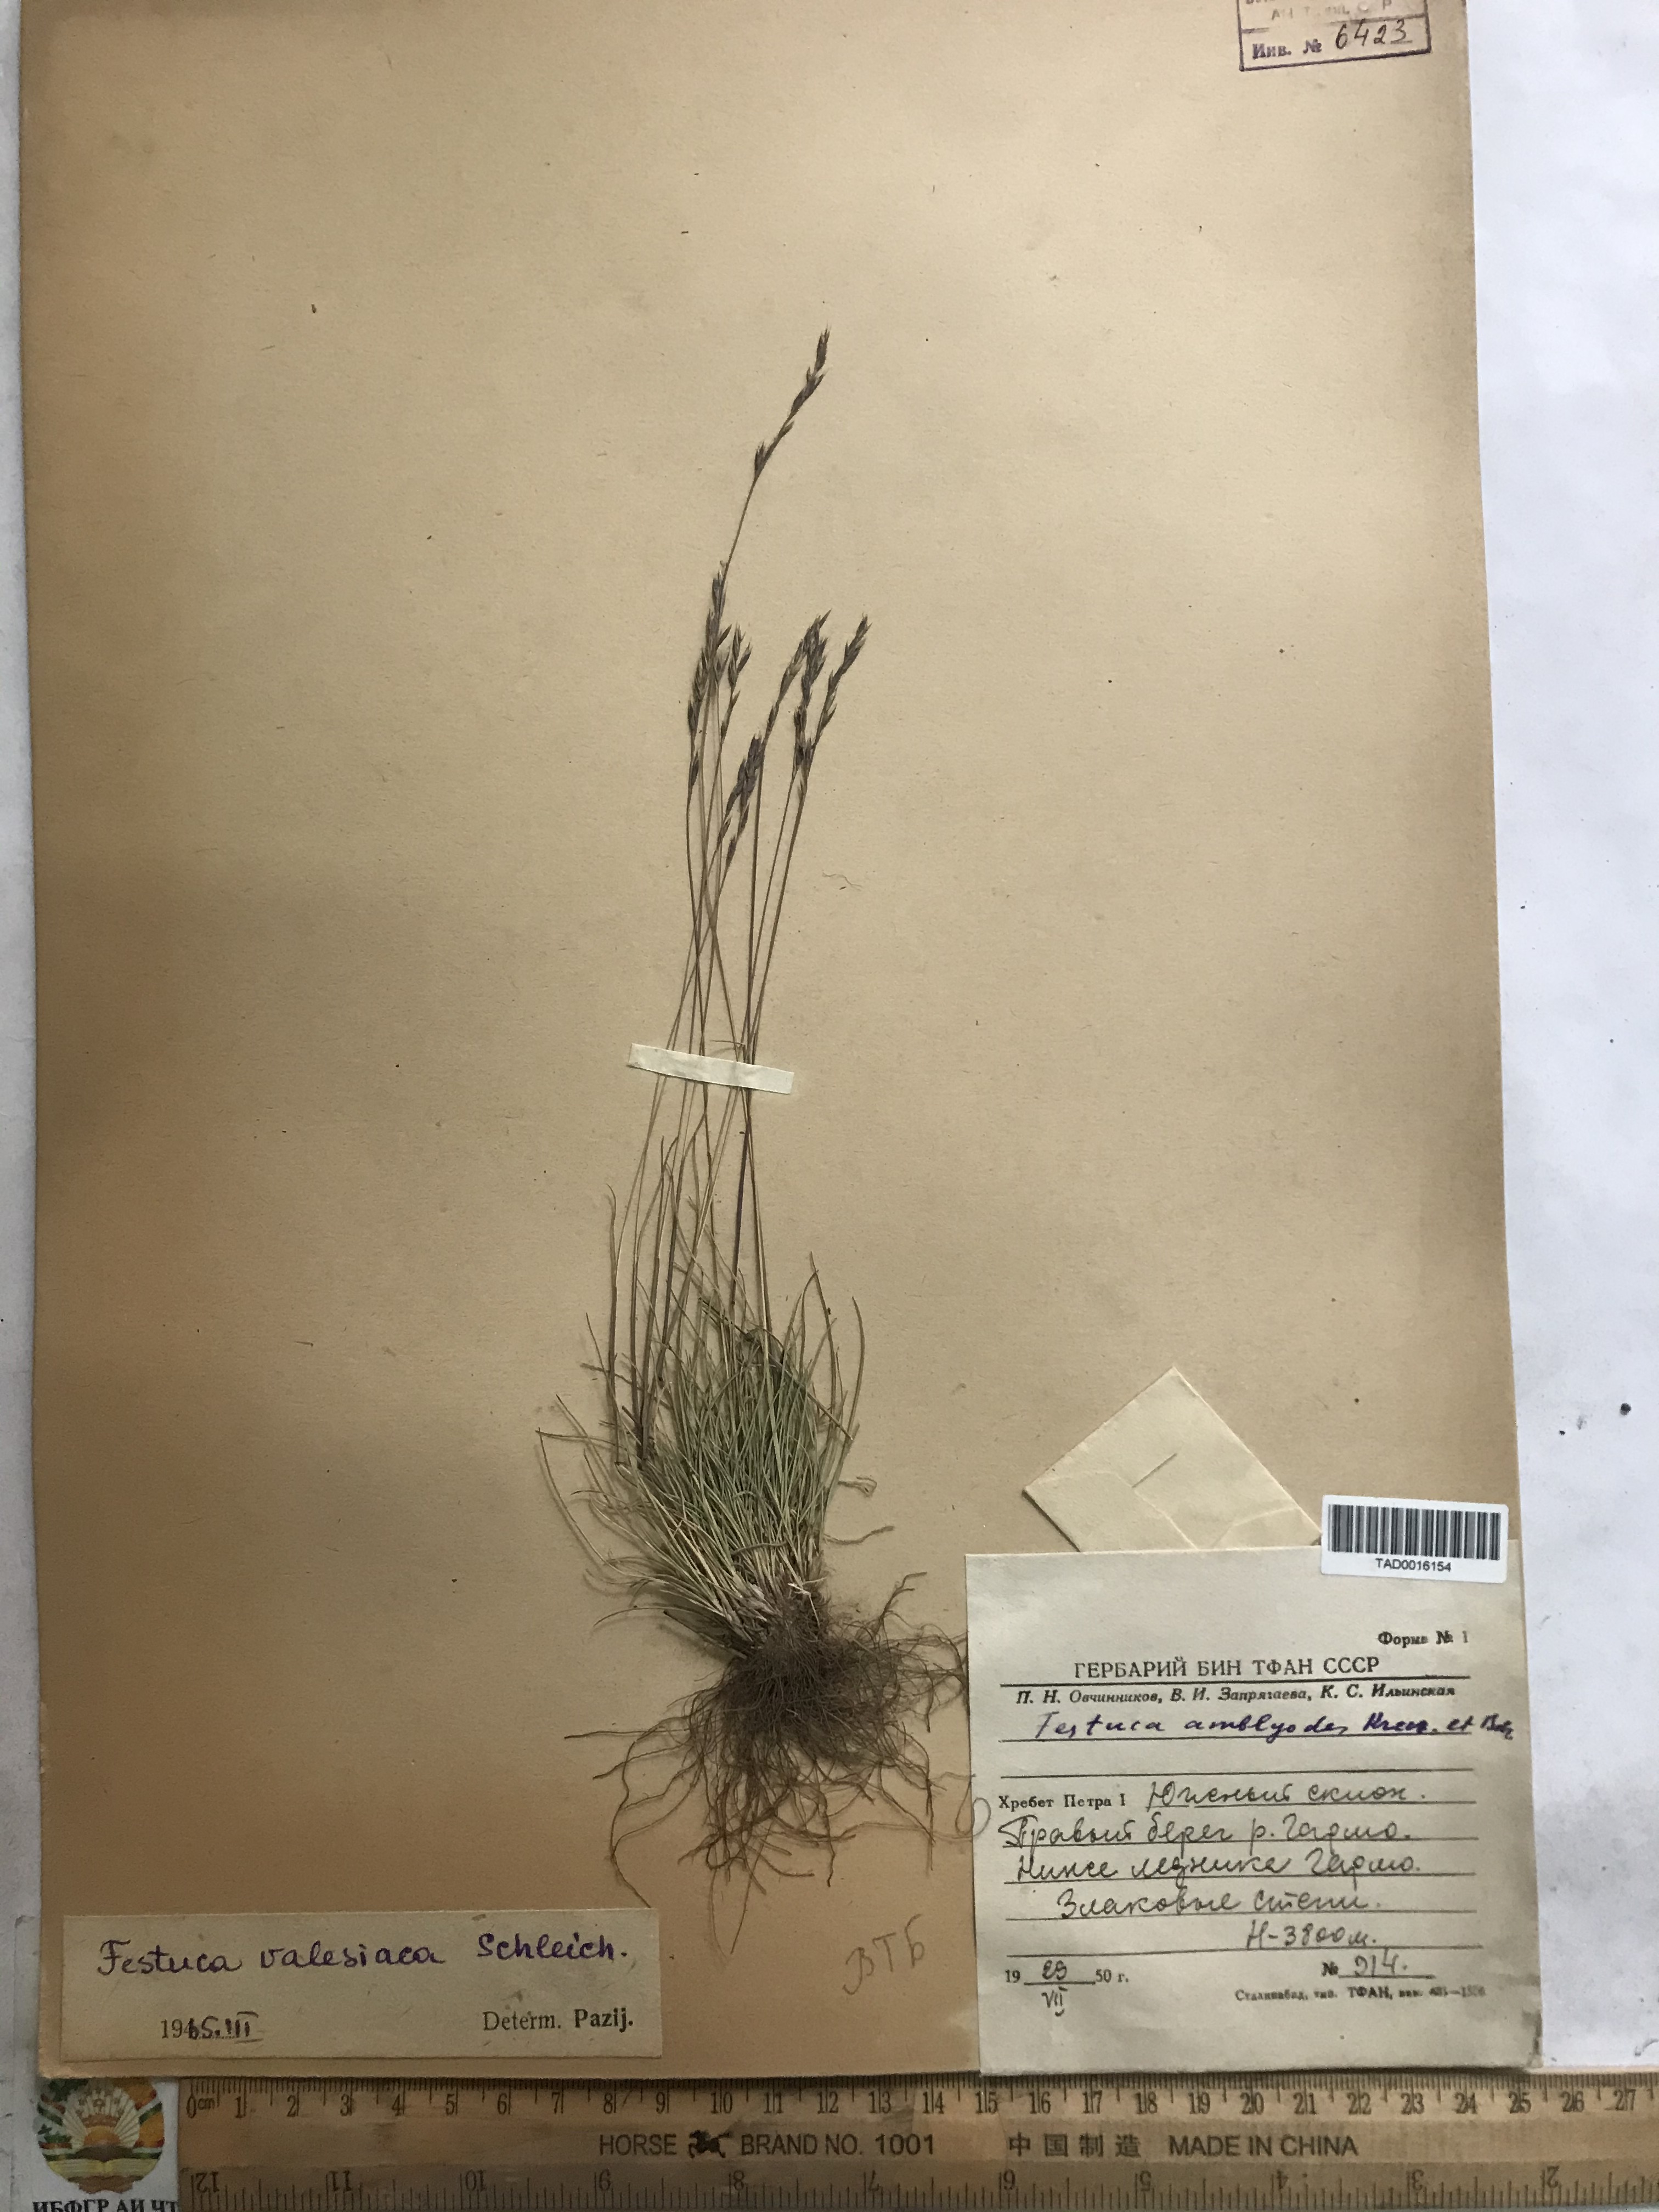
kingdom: Plantae
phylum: Tracheophyta
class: Liliopsida
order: Poales
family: Poaceae
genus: Festuca
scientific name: Festuca valesiaca
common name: Volga fescue
